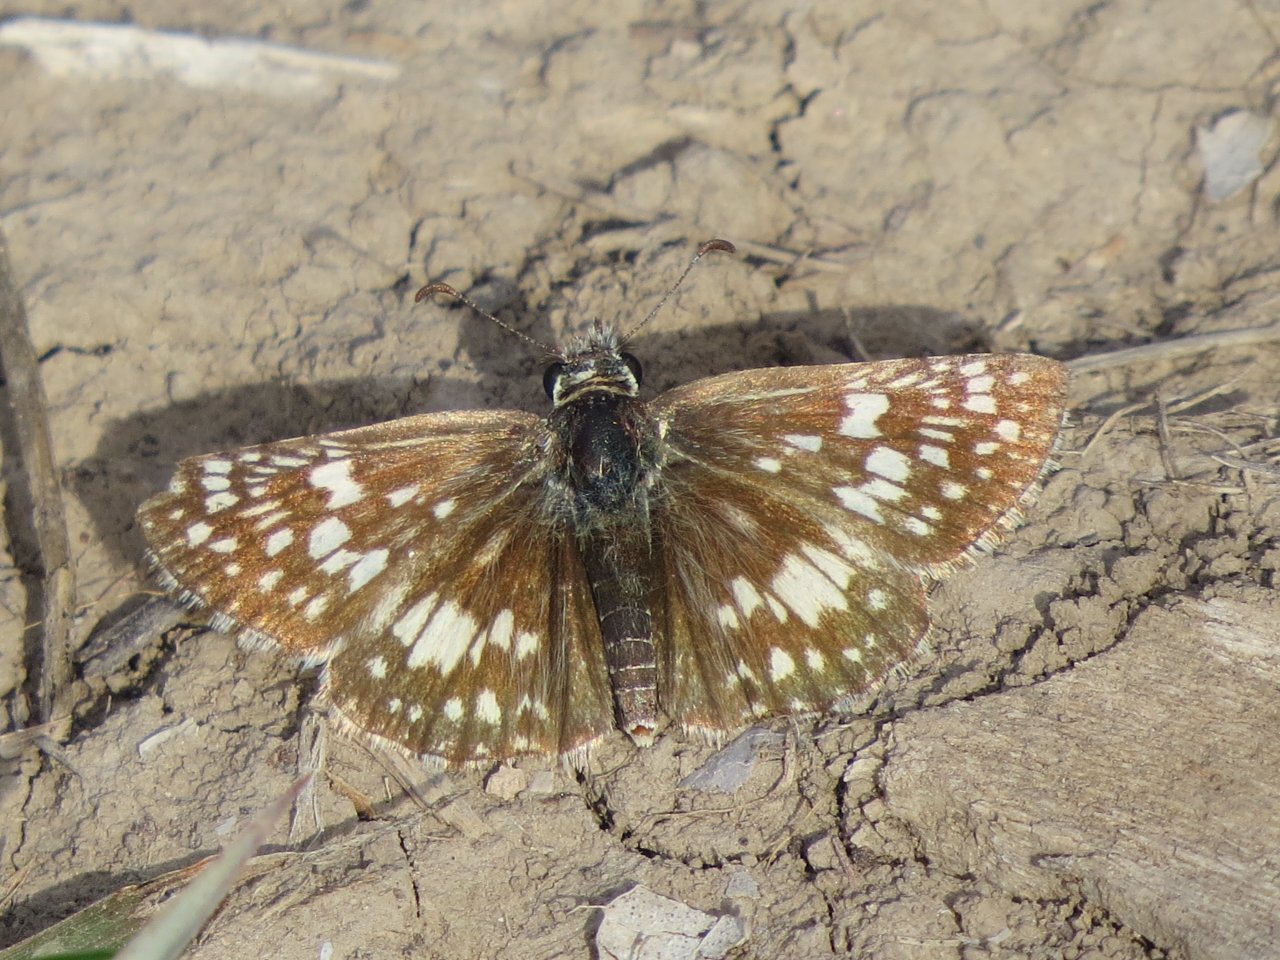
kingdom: Animalia
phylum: Arthropoda
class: Insecta
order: Lepidoptera
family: Hesperiidae
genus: Pyrgus
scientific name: Pyrgus communis
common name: Common Checkered-Skipper
